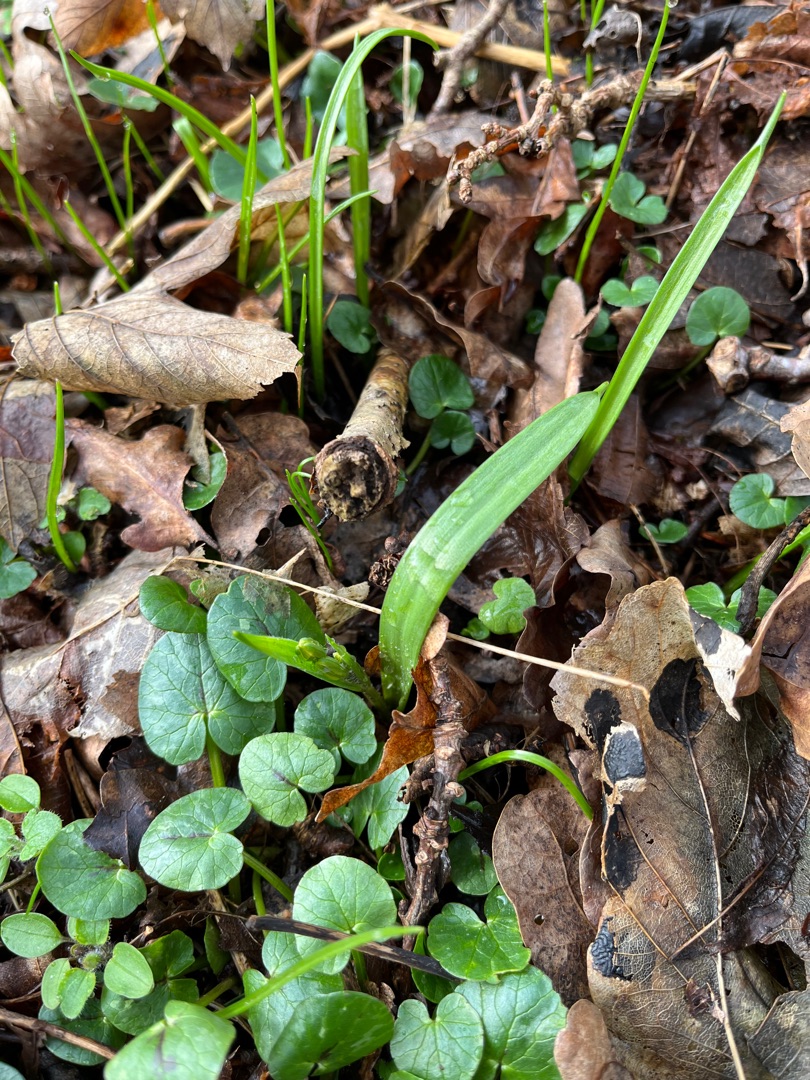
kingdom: Plantae
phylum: Tracheophyta
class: Liliopsida
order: Liliales
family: Liliaceae
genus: Gagea
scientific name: Gagea lutea
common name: Almindelig guldstjerne
